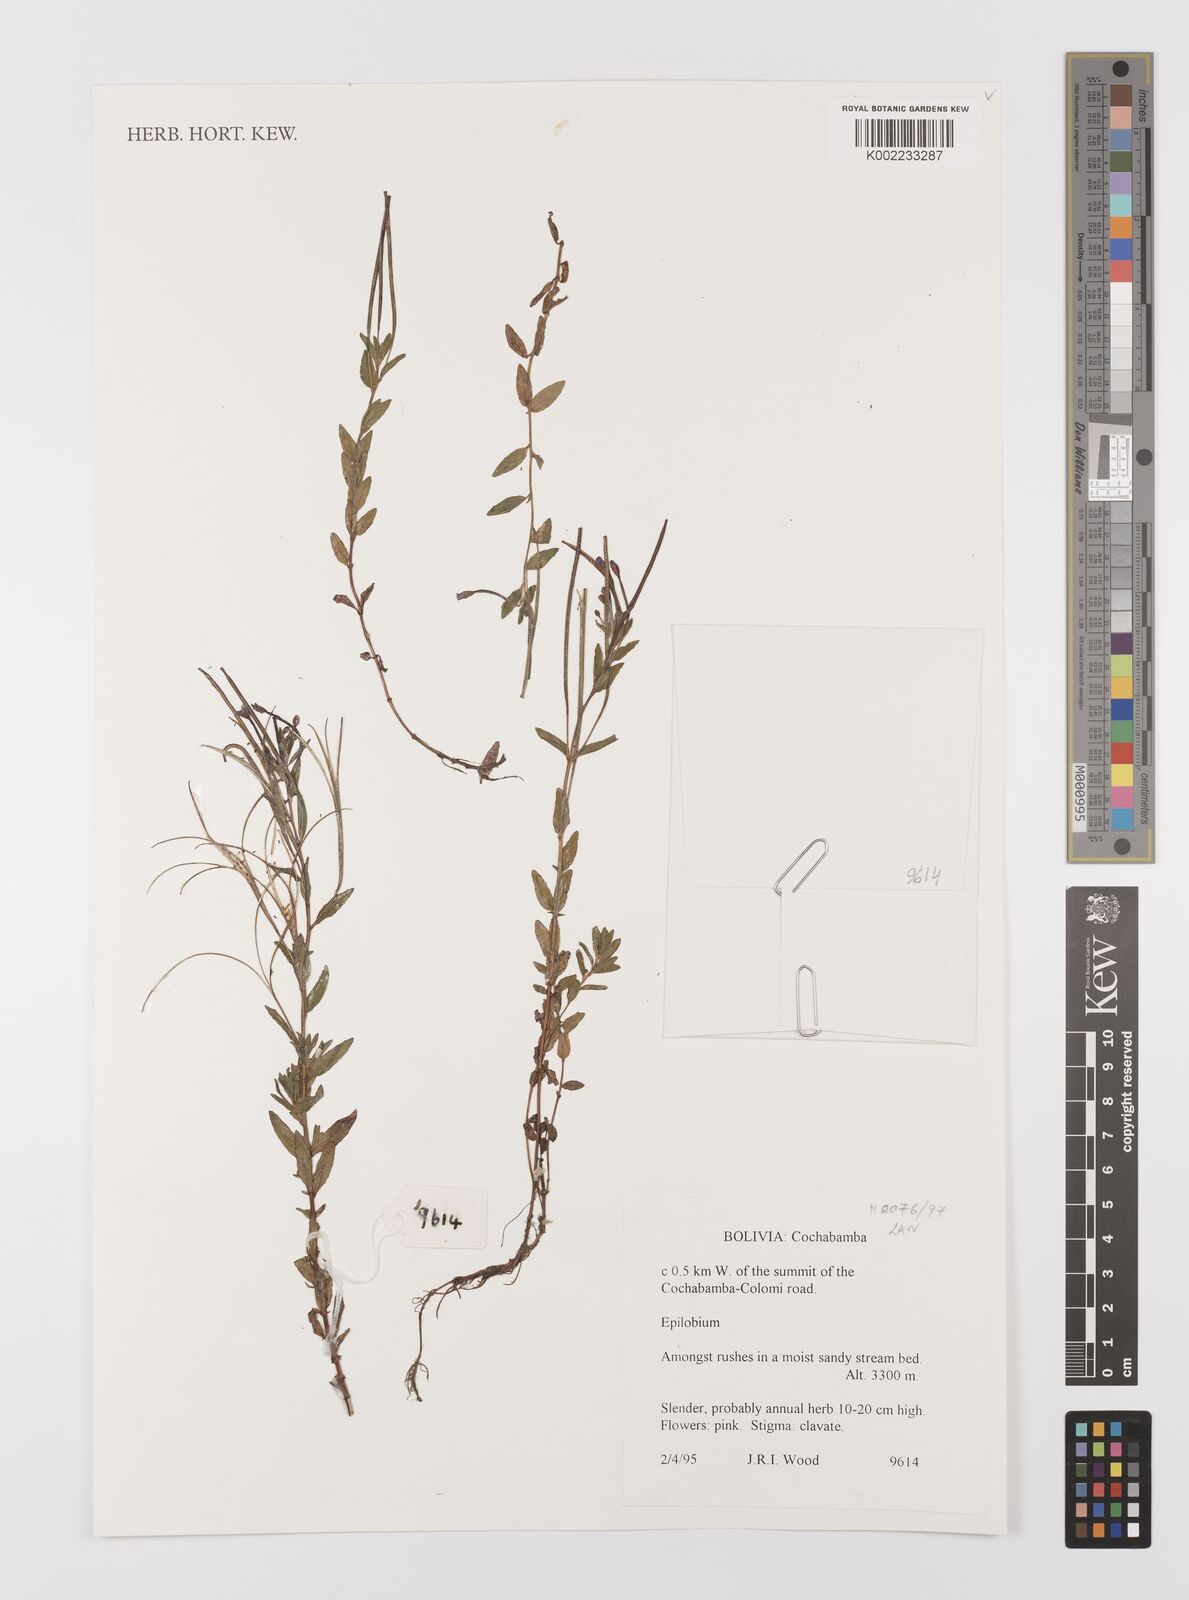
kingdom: Plantae
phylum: Tracheophyta
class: Magnoliopsida
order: Myrtales
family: Onagraceae
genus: Epilobium
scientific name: Epilobium
